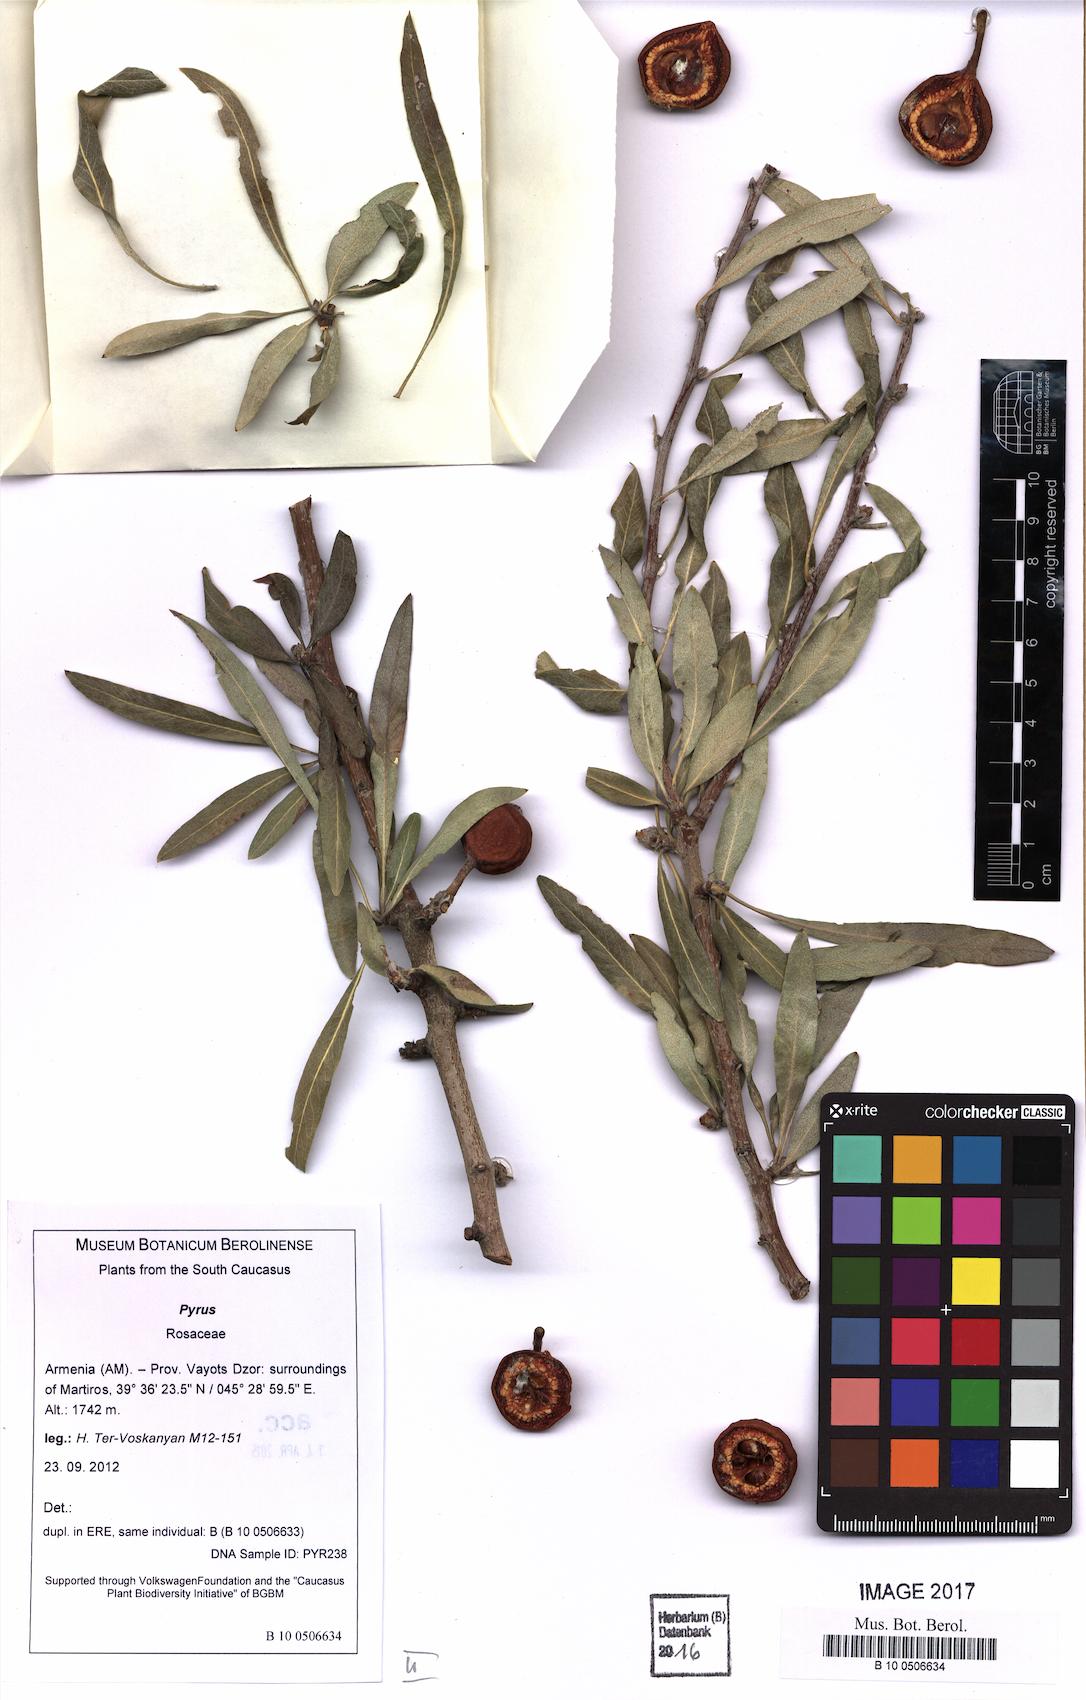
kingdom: Plantae
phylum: Tracheophyta
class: Magnoliopsida
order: Rosales
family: Rosaceae
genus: Pyrus
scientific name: Pyrus
